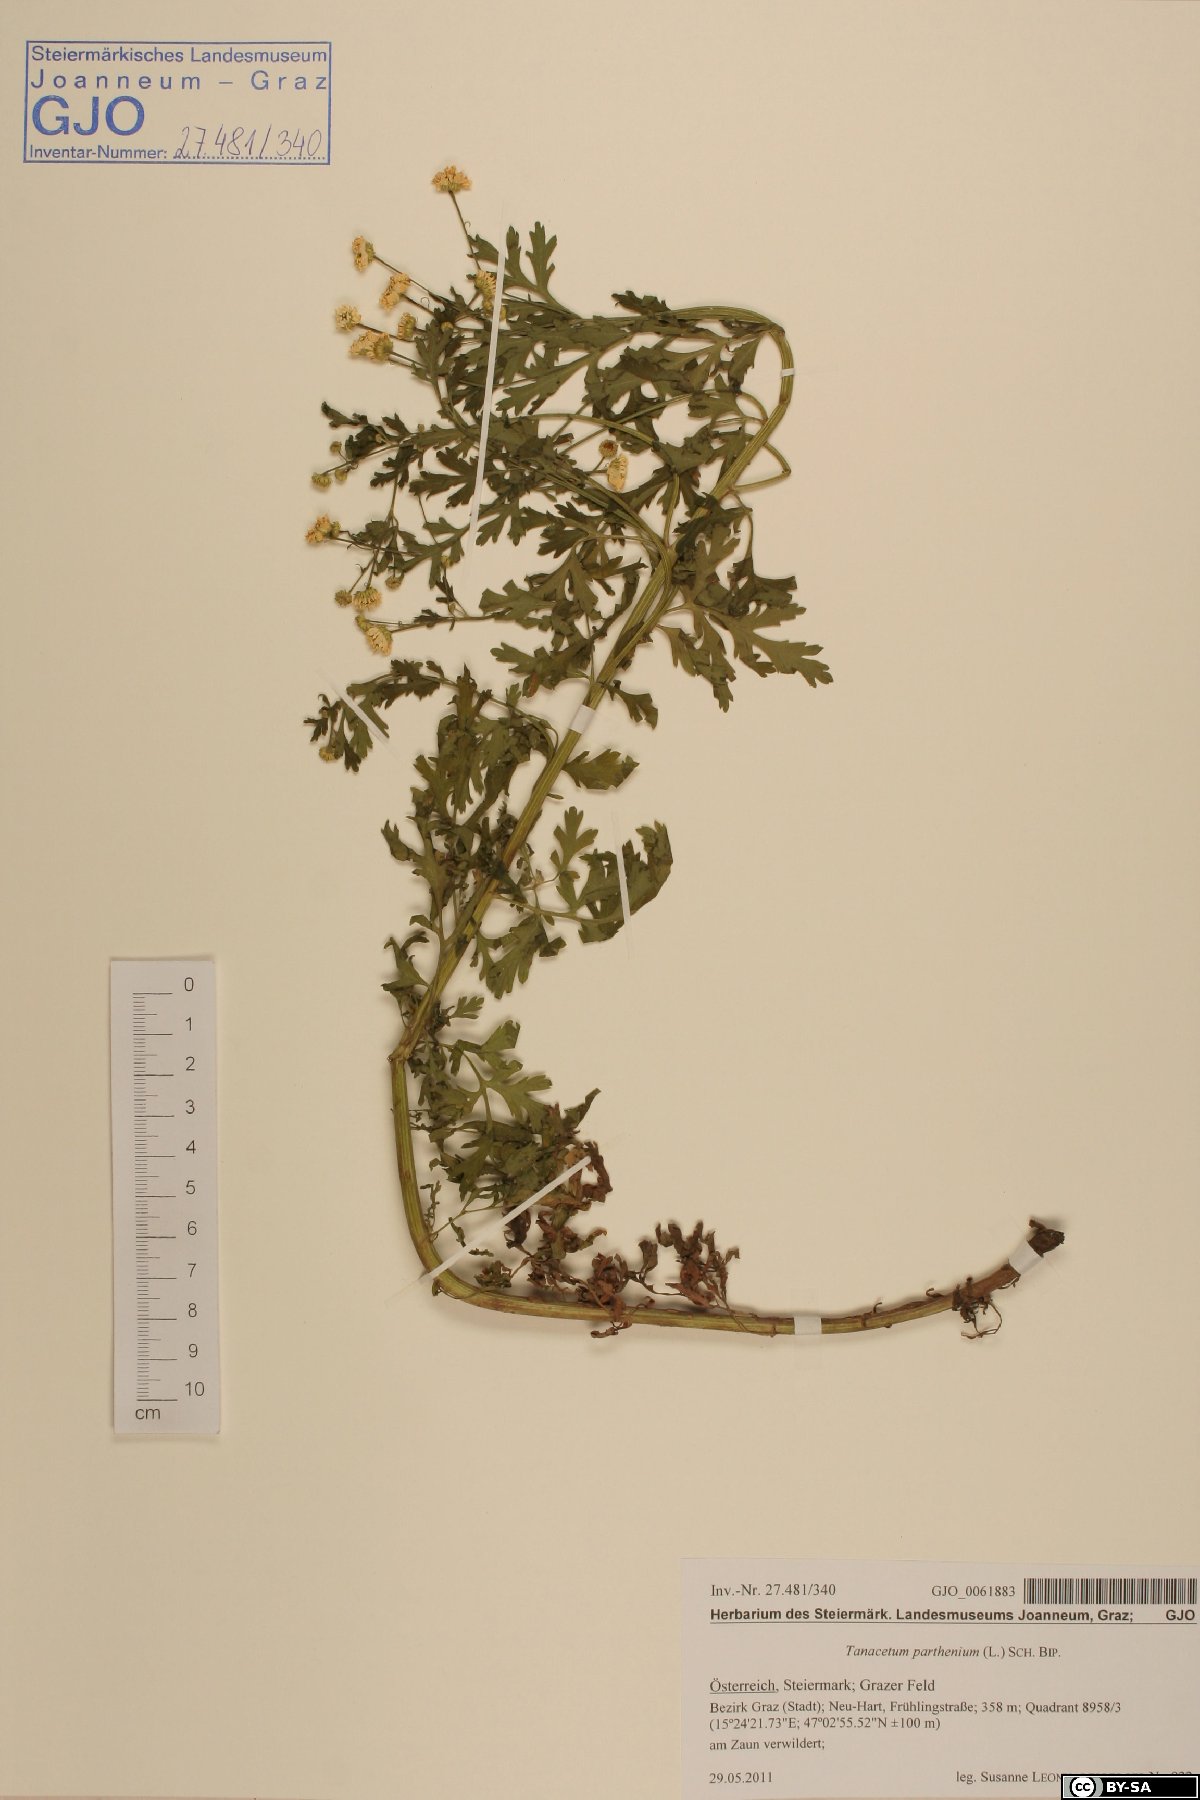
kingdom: Plantae
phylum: Tracheophyta
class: Magnoliopsida
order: Asterales
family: Asteraceae
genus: Tanacetum
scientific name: Tanacetum parthenium
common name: Feverfew
